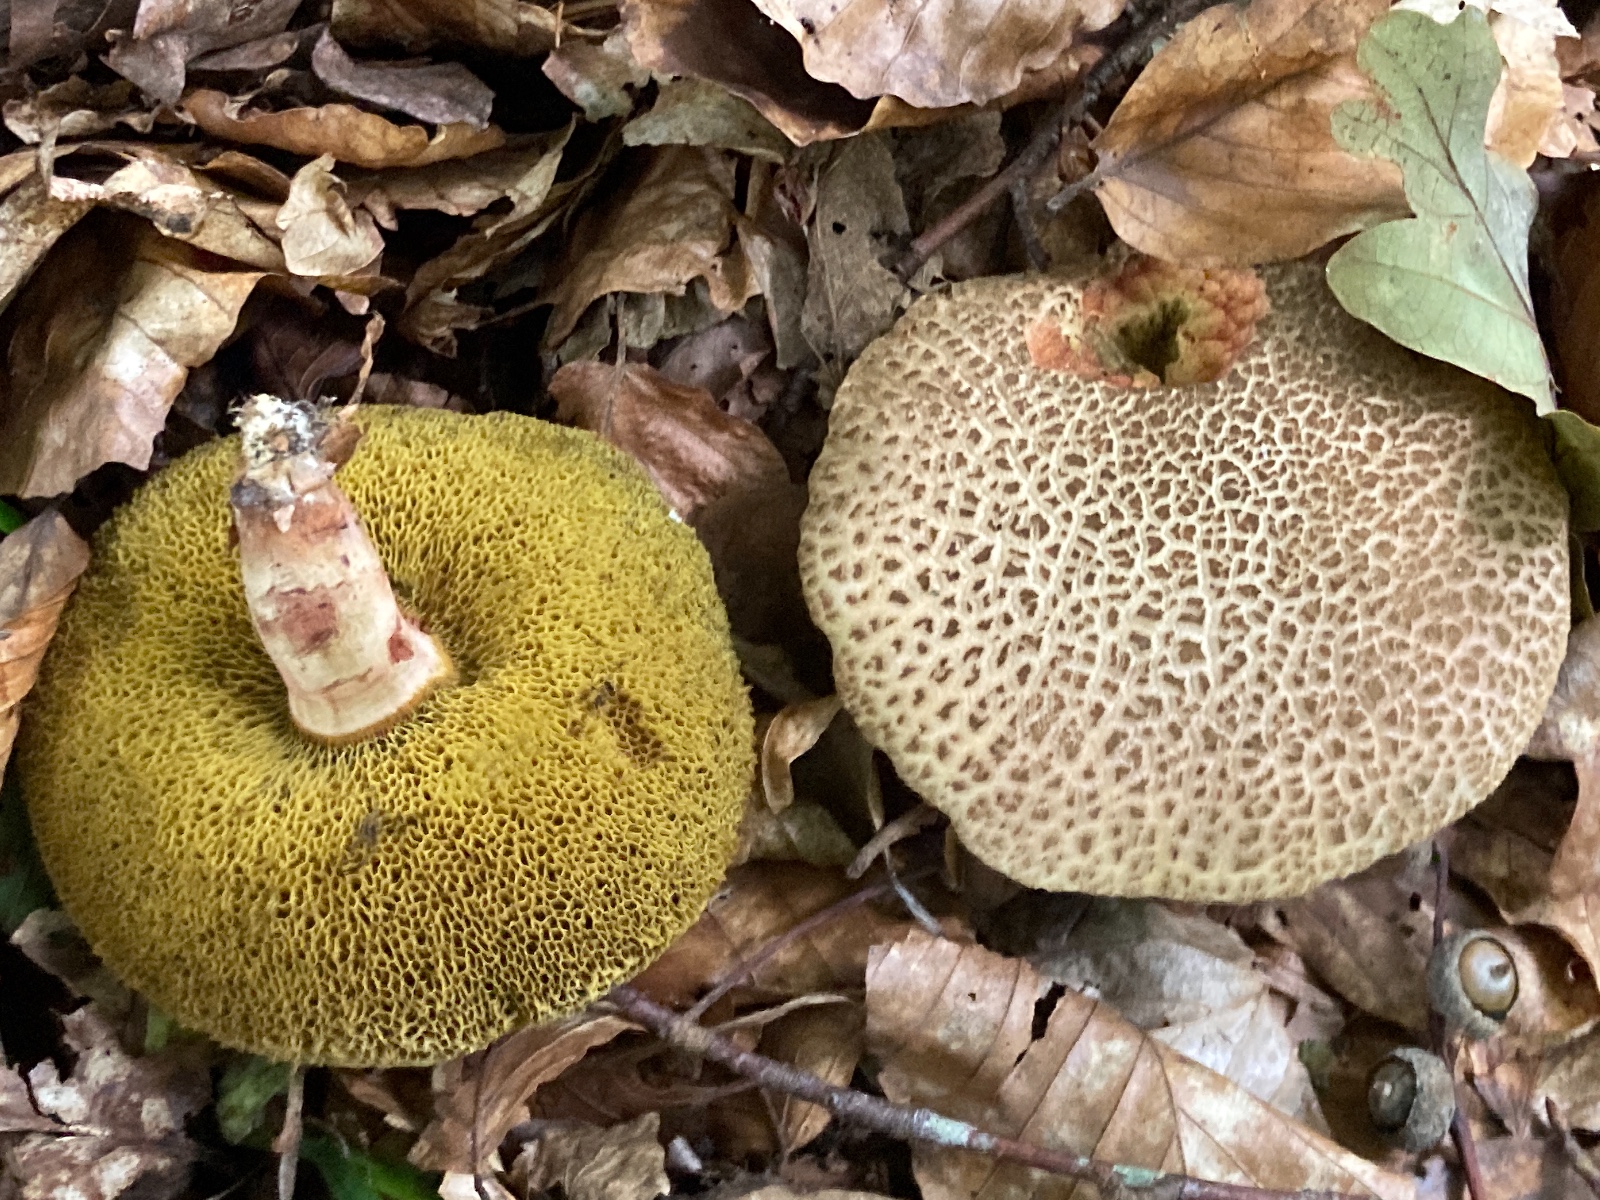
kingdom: Fungi
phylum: Basidiomycota
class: Agaricomycetes
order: Boletales
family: Boletaceae
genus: Xerocomellus
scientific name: Xerocomellus porosporus
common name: hvidsprukken rørhat
